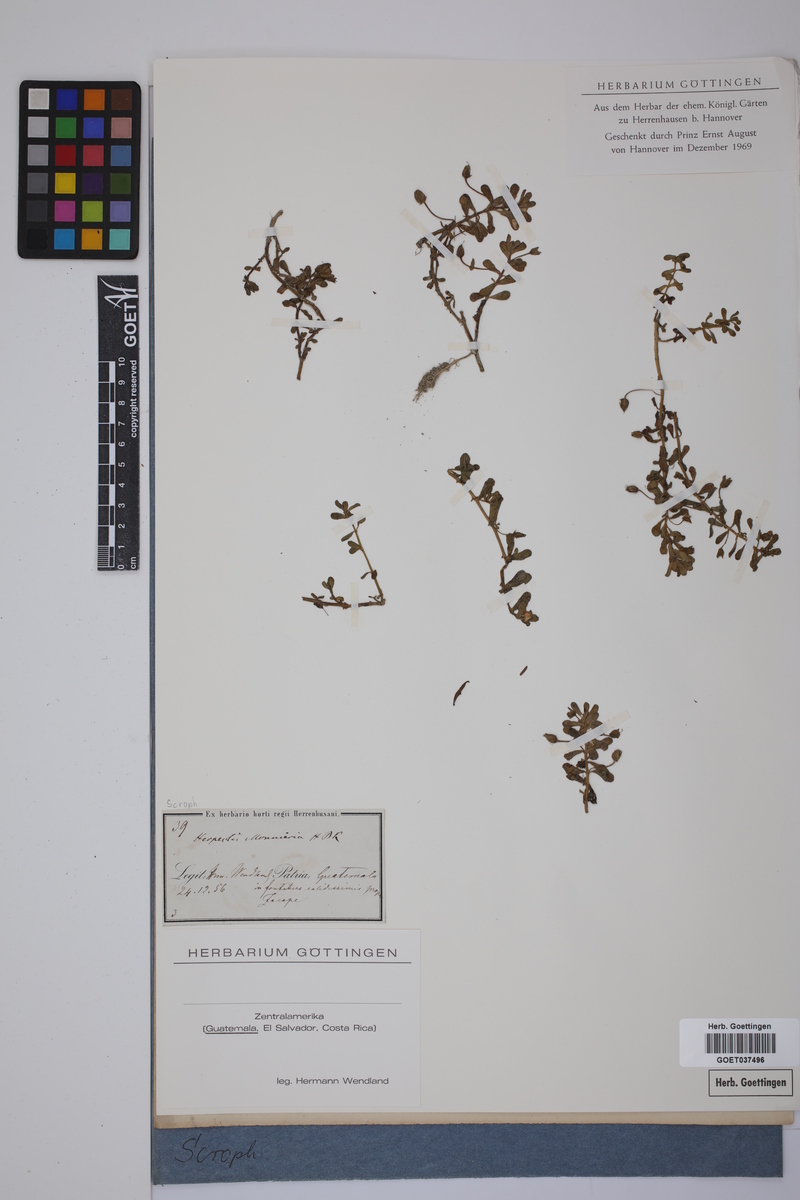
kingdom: Plantae
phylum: Tracheophyta
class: Magnoliopsida
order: Lamiales
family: Plantaginaceae
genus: Bacopa
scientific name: Bacopa monnieri
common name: Indian-pennywort
